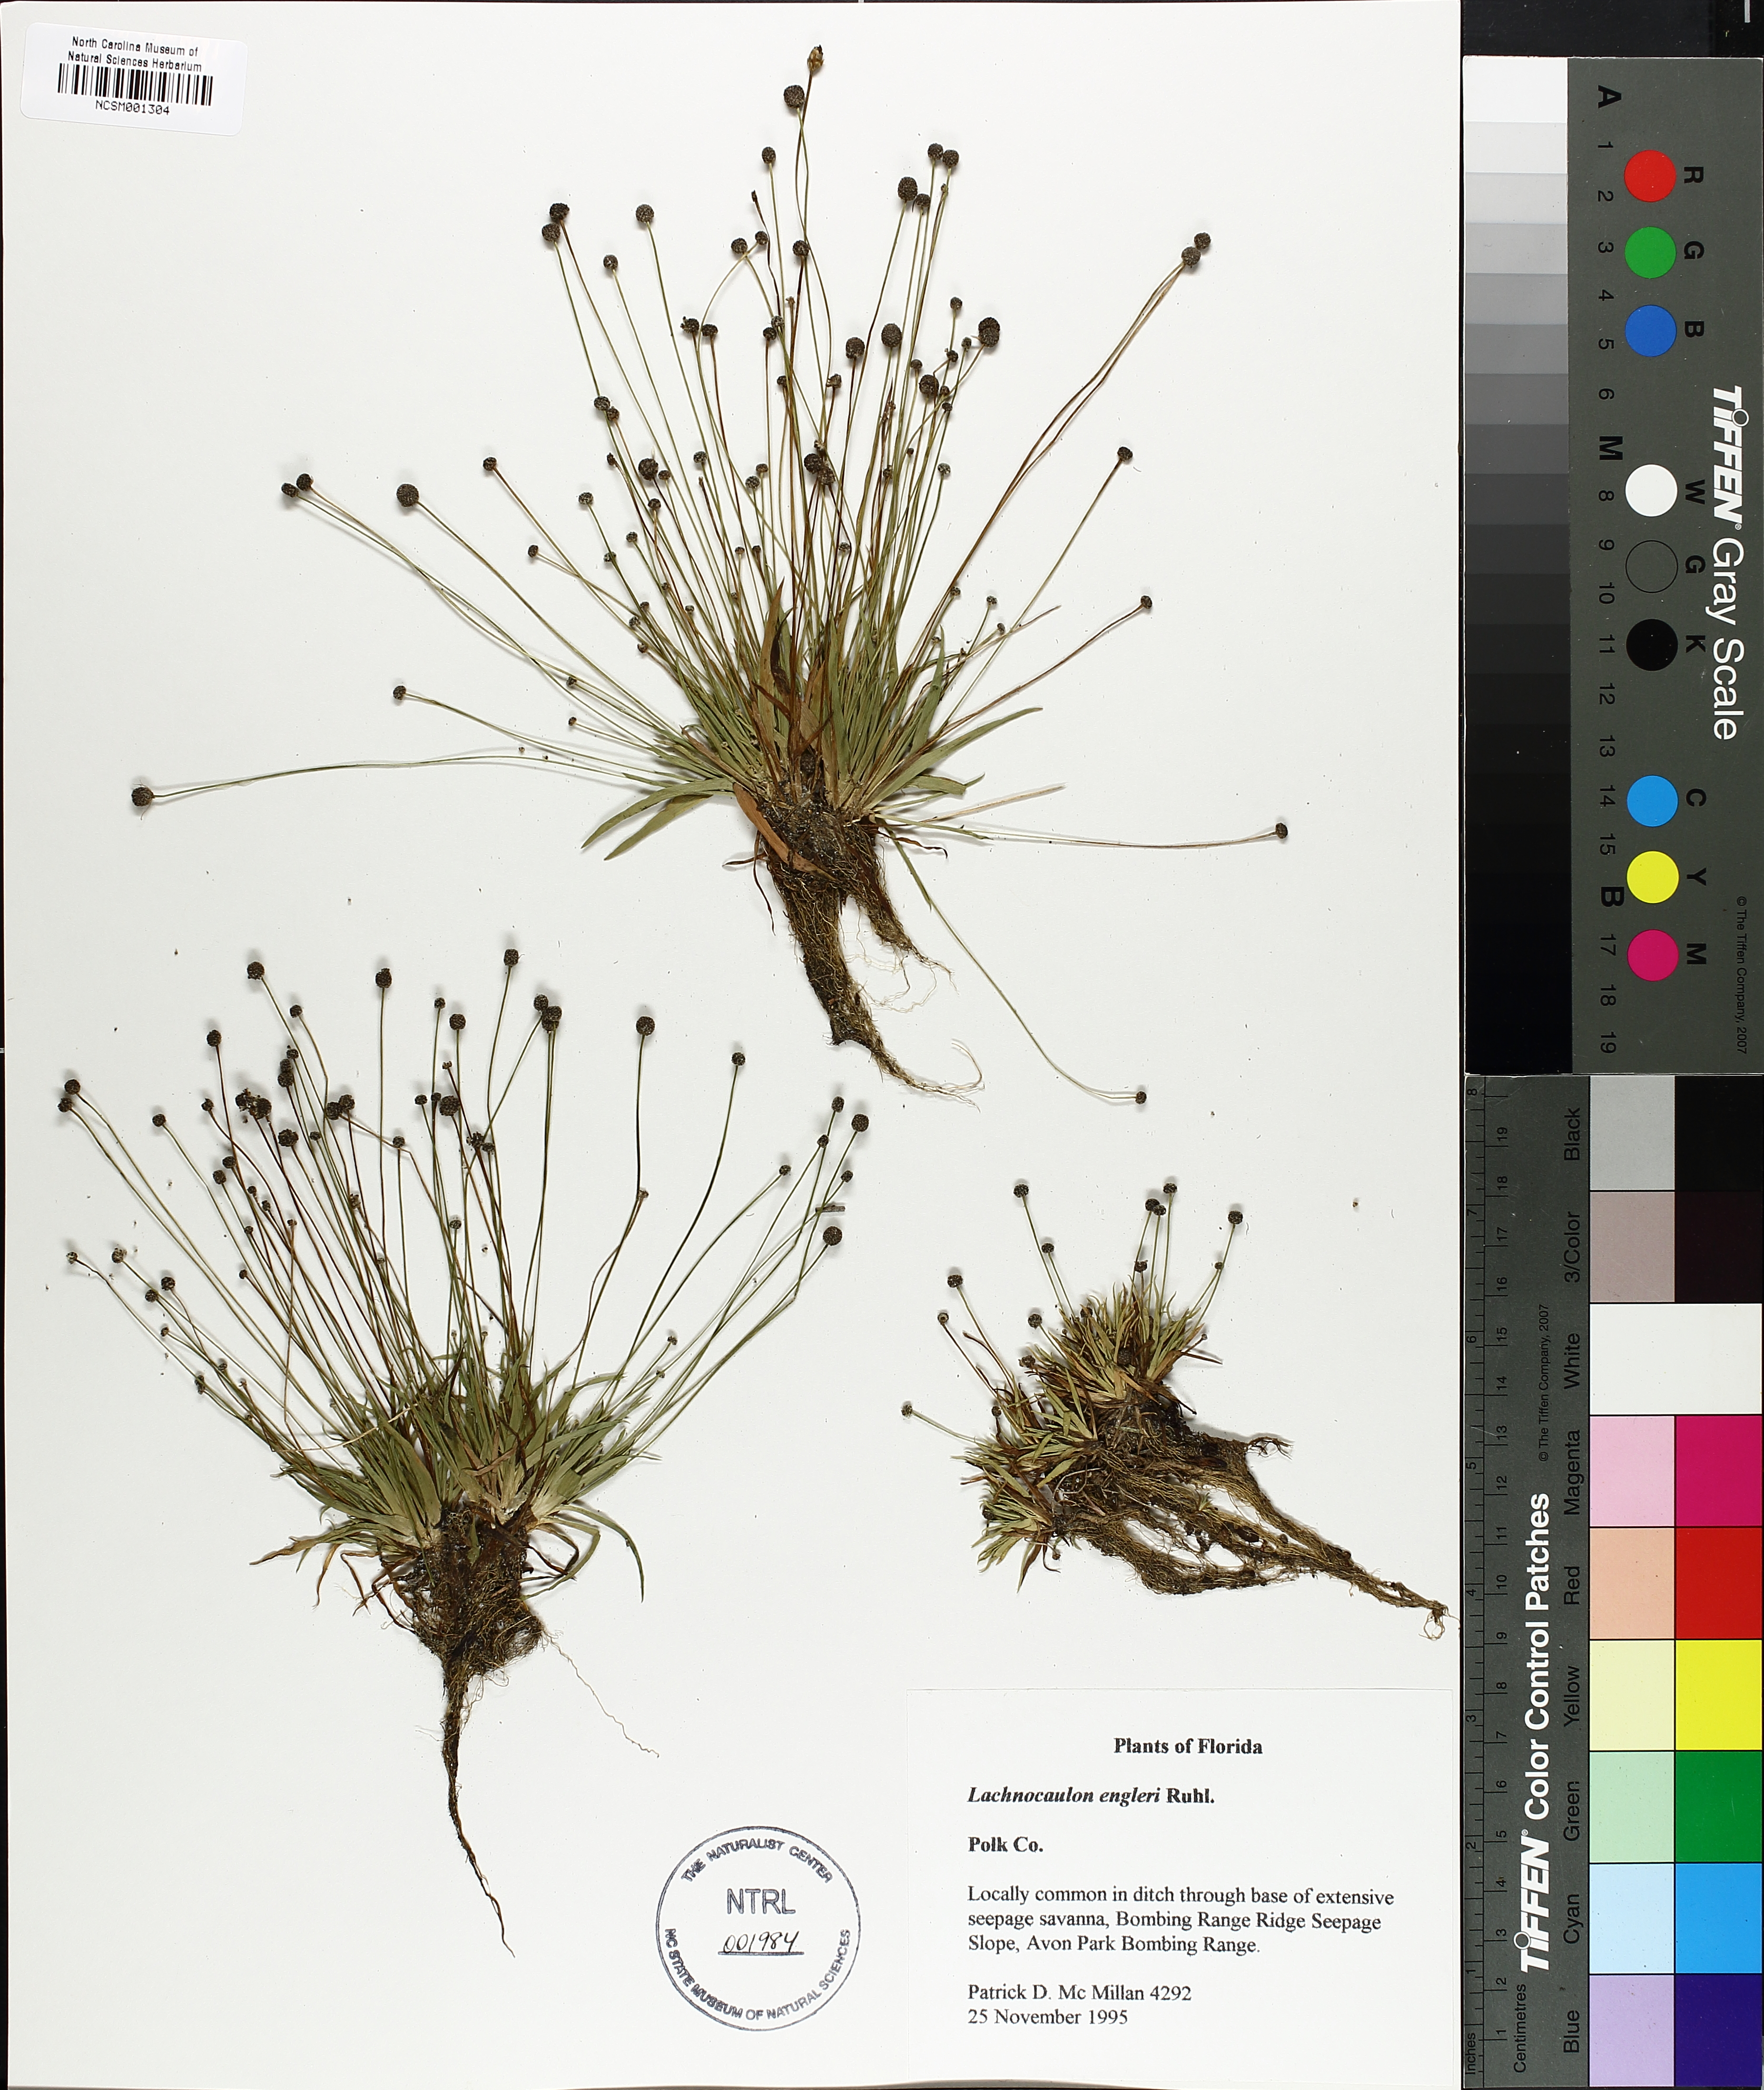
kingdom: Plantae
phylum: Tracheophyta
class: Liliopsida
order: Poales
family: Eriocaulaceae
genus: Paepalanthus
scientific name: Paepalanthus engleri
